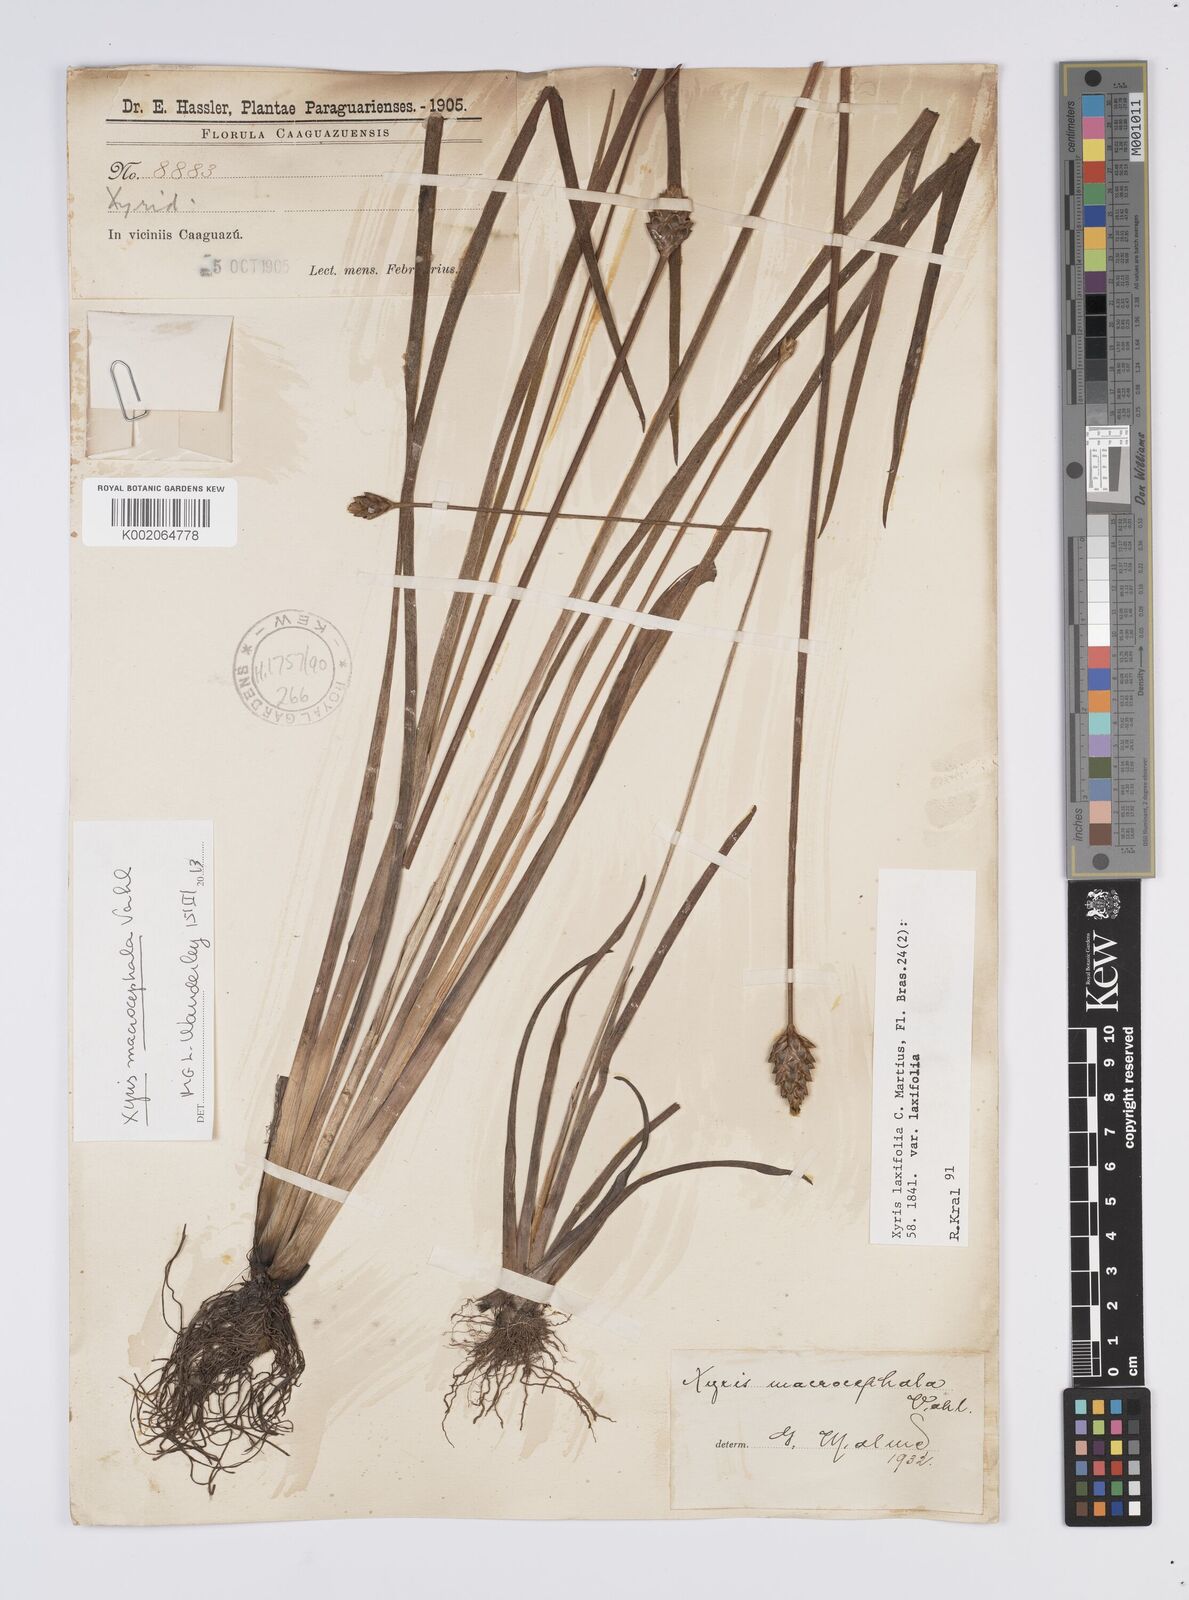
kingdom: Plantae
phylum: Tracheophyta
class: Liliopsida
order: Poales
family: Xyridaceae
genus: Xyris
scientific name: Xyris laxifolia
